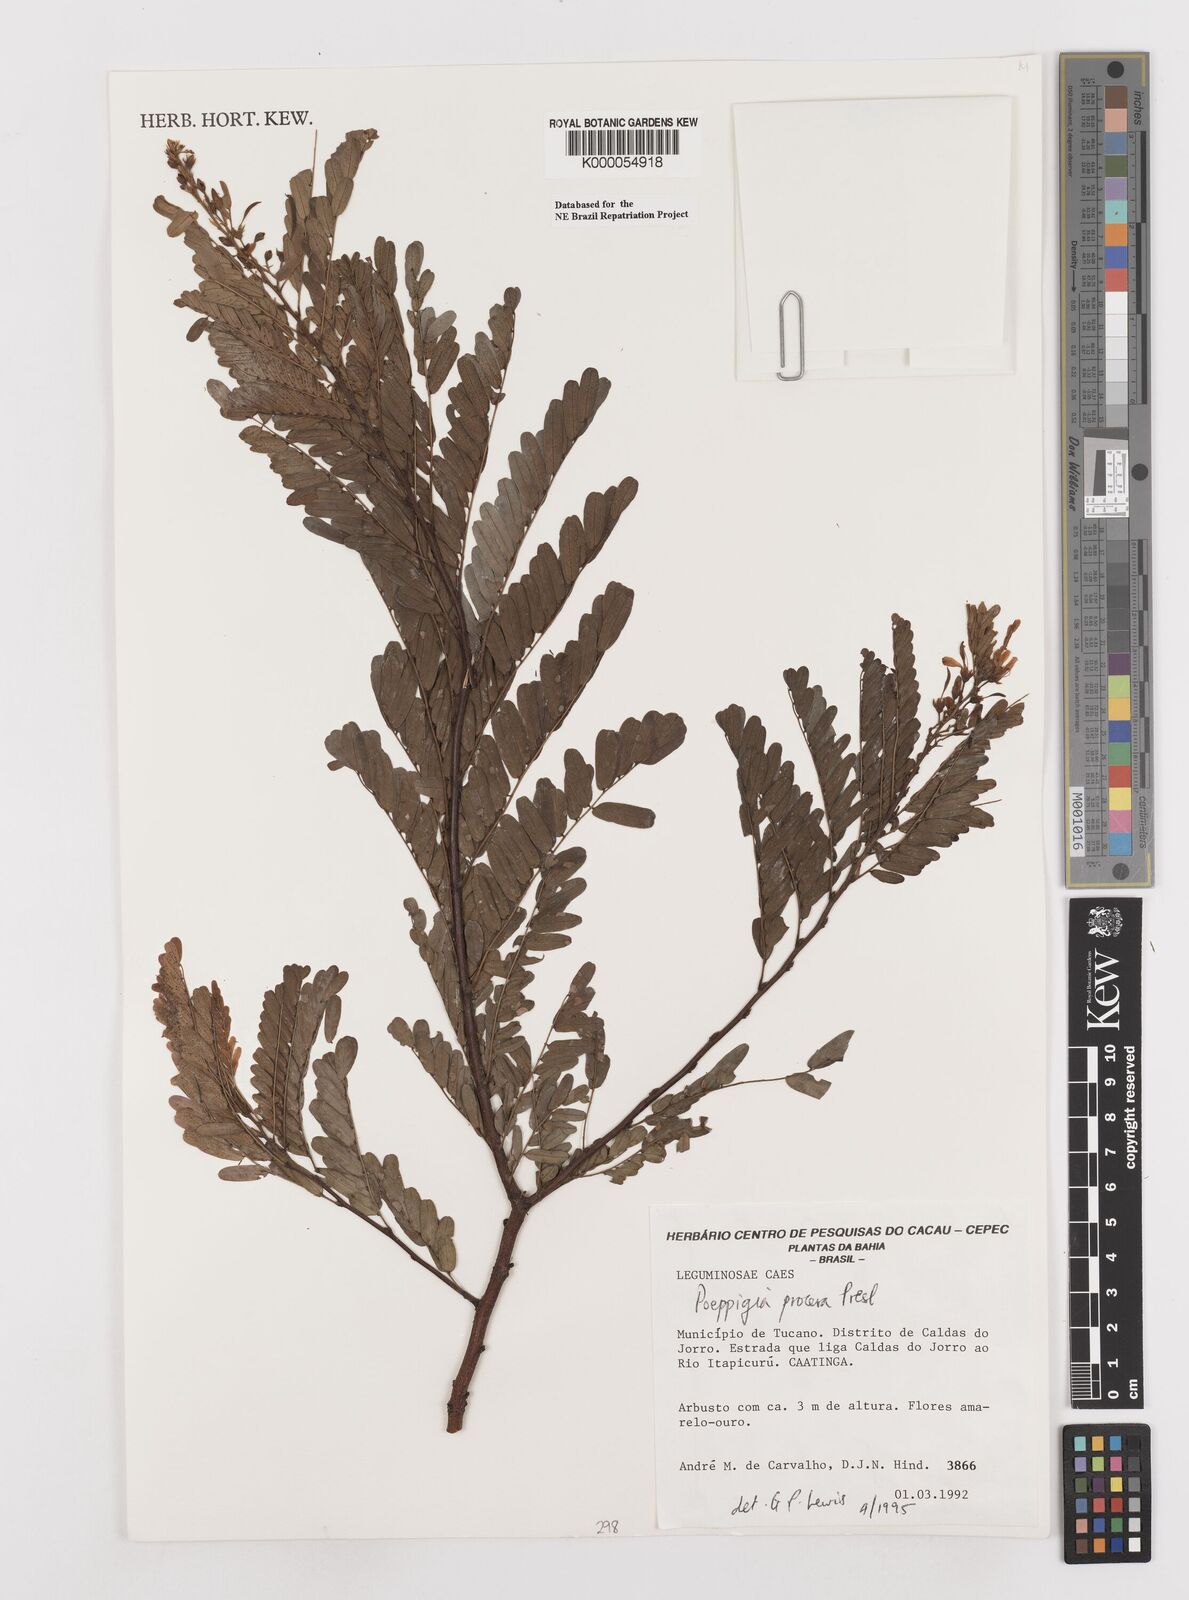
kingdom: Plantae
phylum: Tracheophyta
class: Magnoliopsida
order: Fabales
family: Fabaceae
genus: Poeppigia
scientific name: Poeppigia procera
